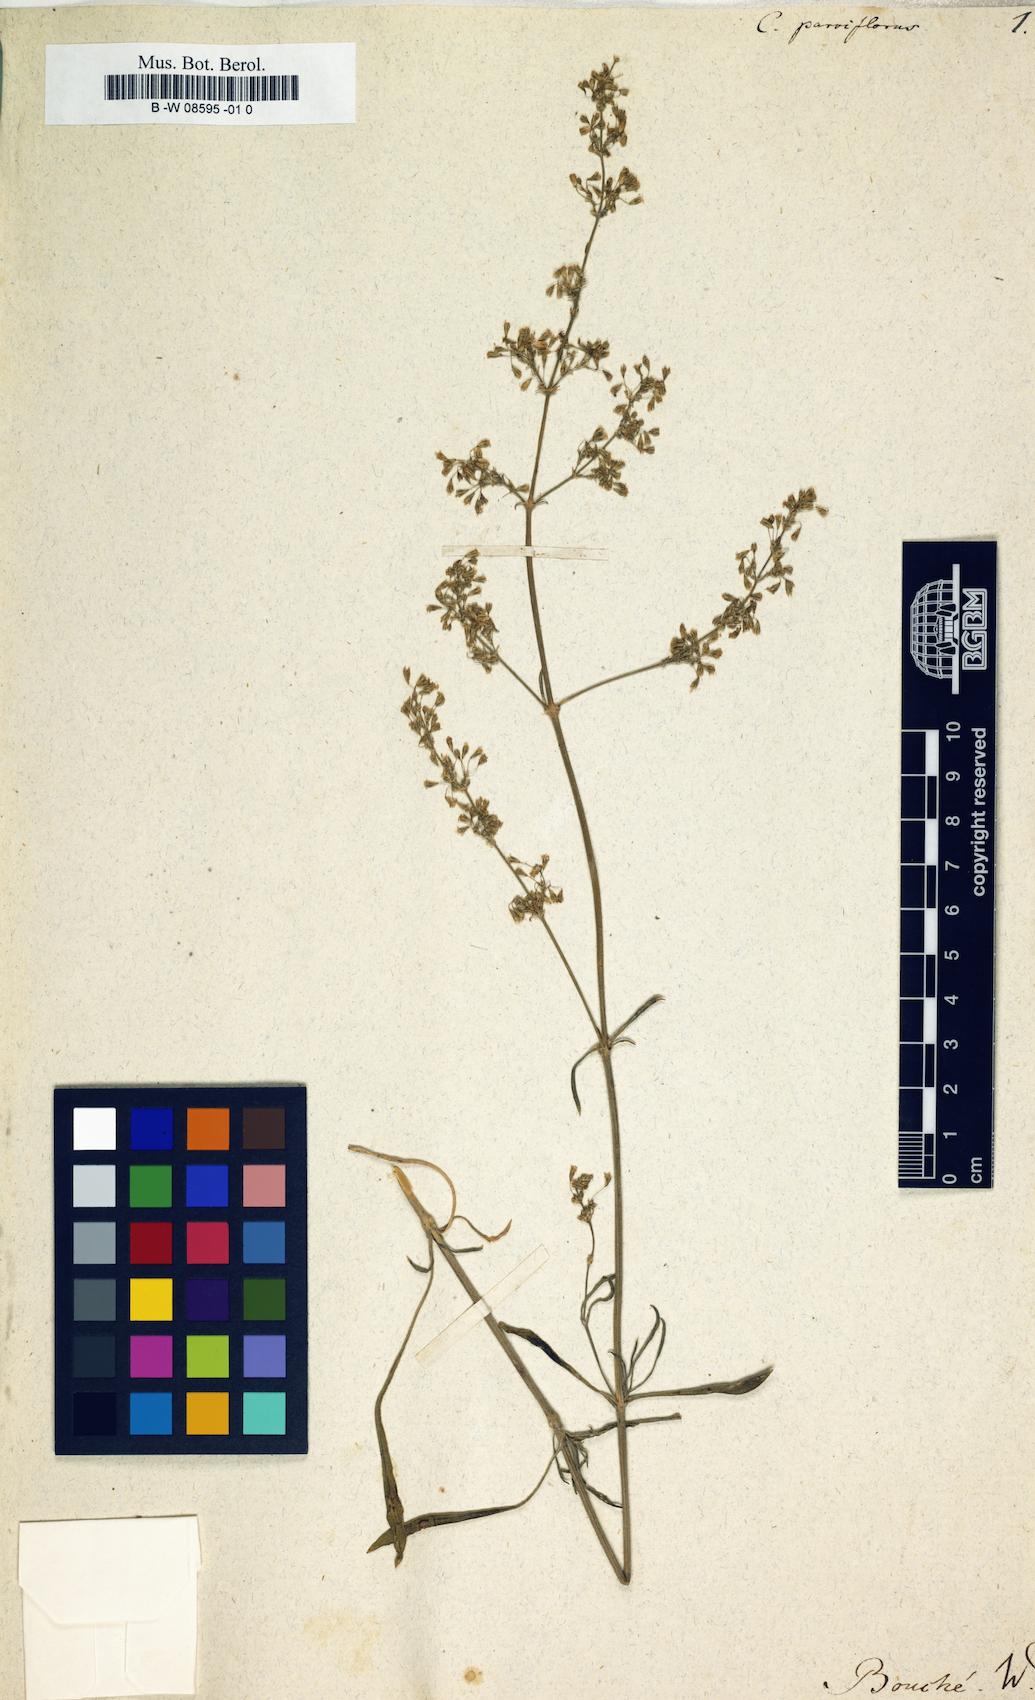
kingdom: Plantae
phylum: Tracheophyta
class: Magnoliopsida
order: Caryophyllales
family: Caryophyllaceae
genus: Silene
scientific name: Silene
